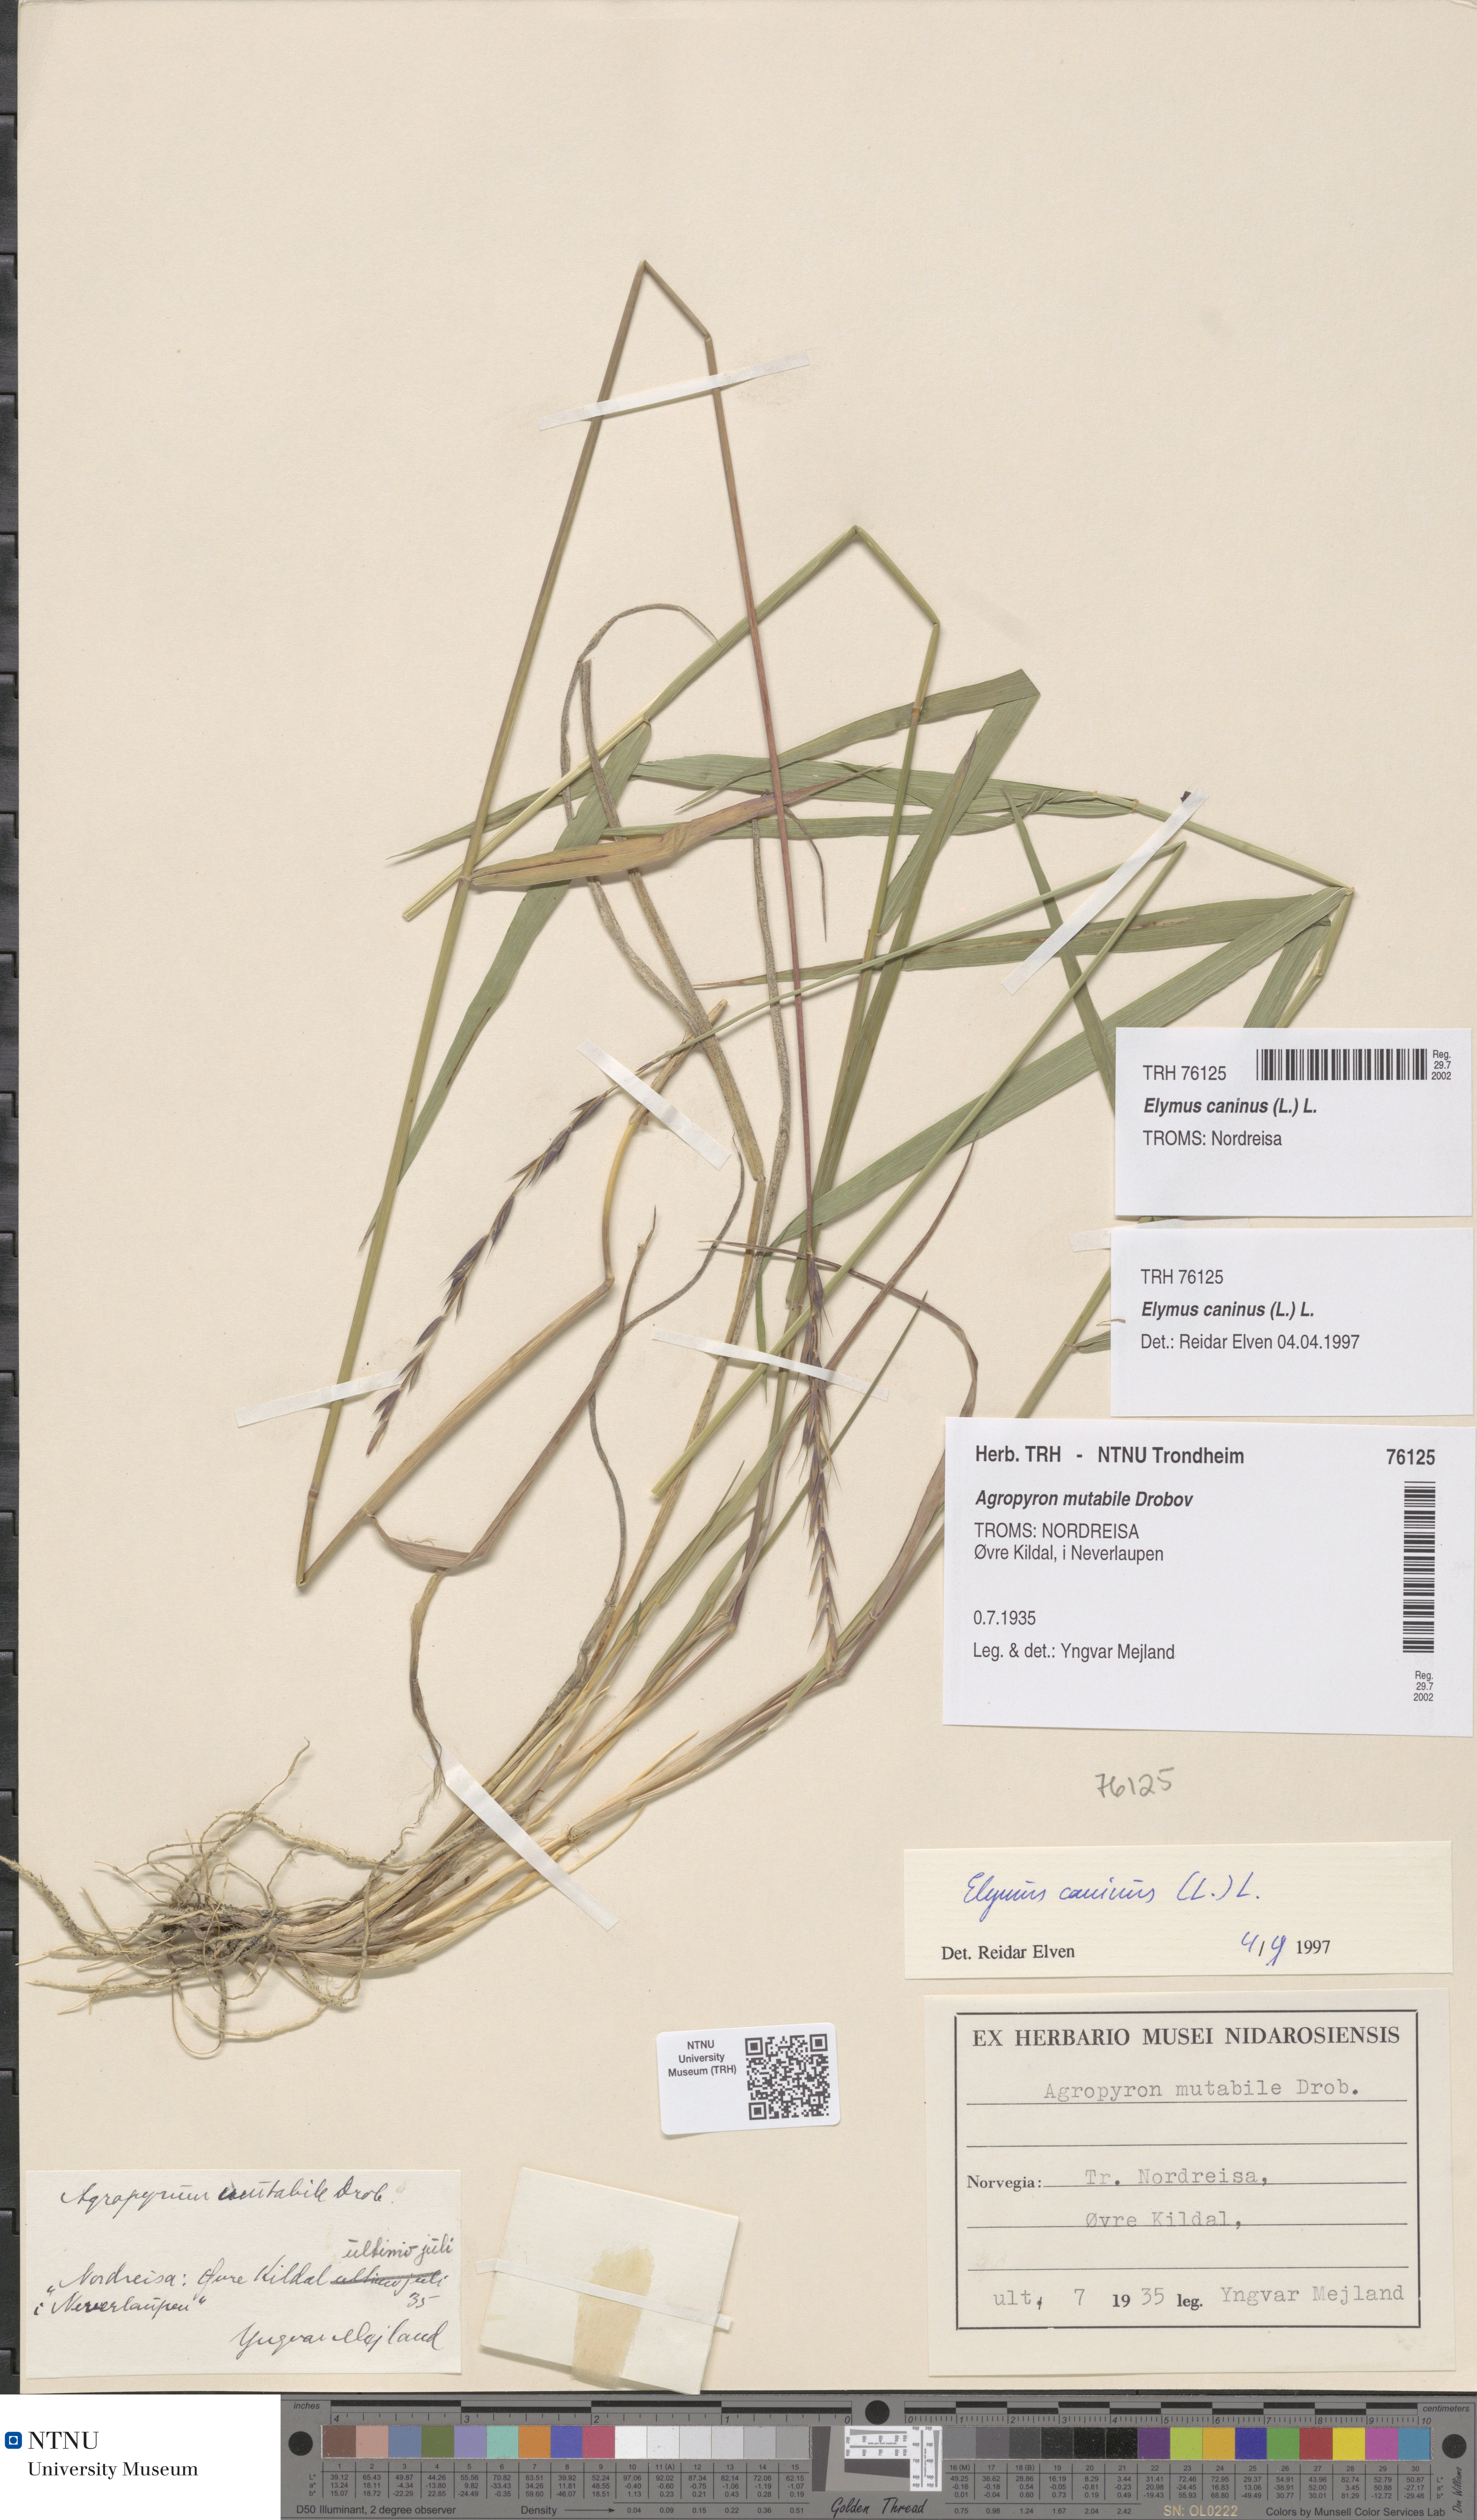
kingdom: Plantae
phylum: Tracheophyta
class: Liliopsida
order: Poales
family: Poaceae
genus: Elymus
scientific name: Elymus mutabilis
